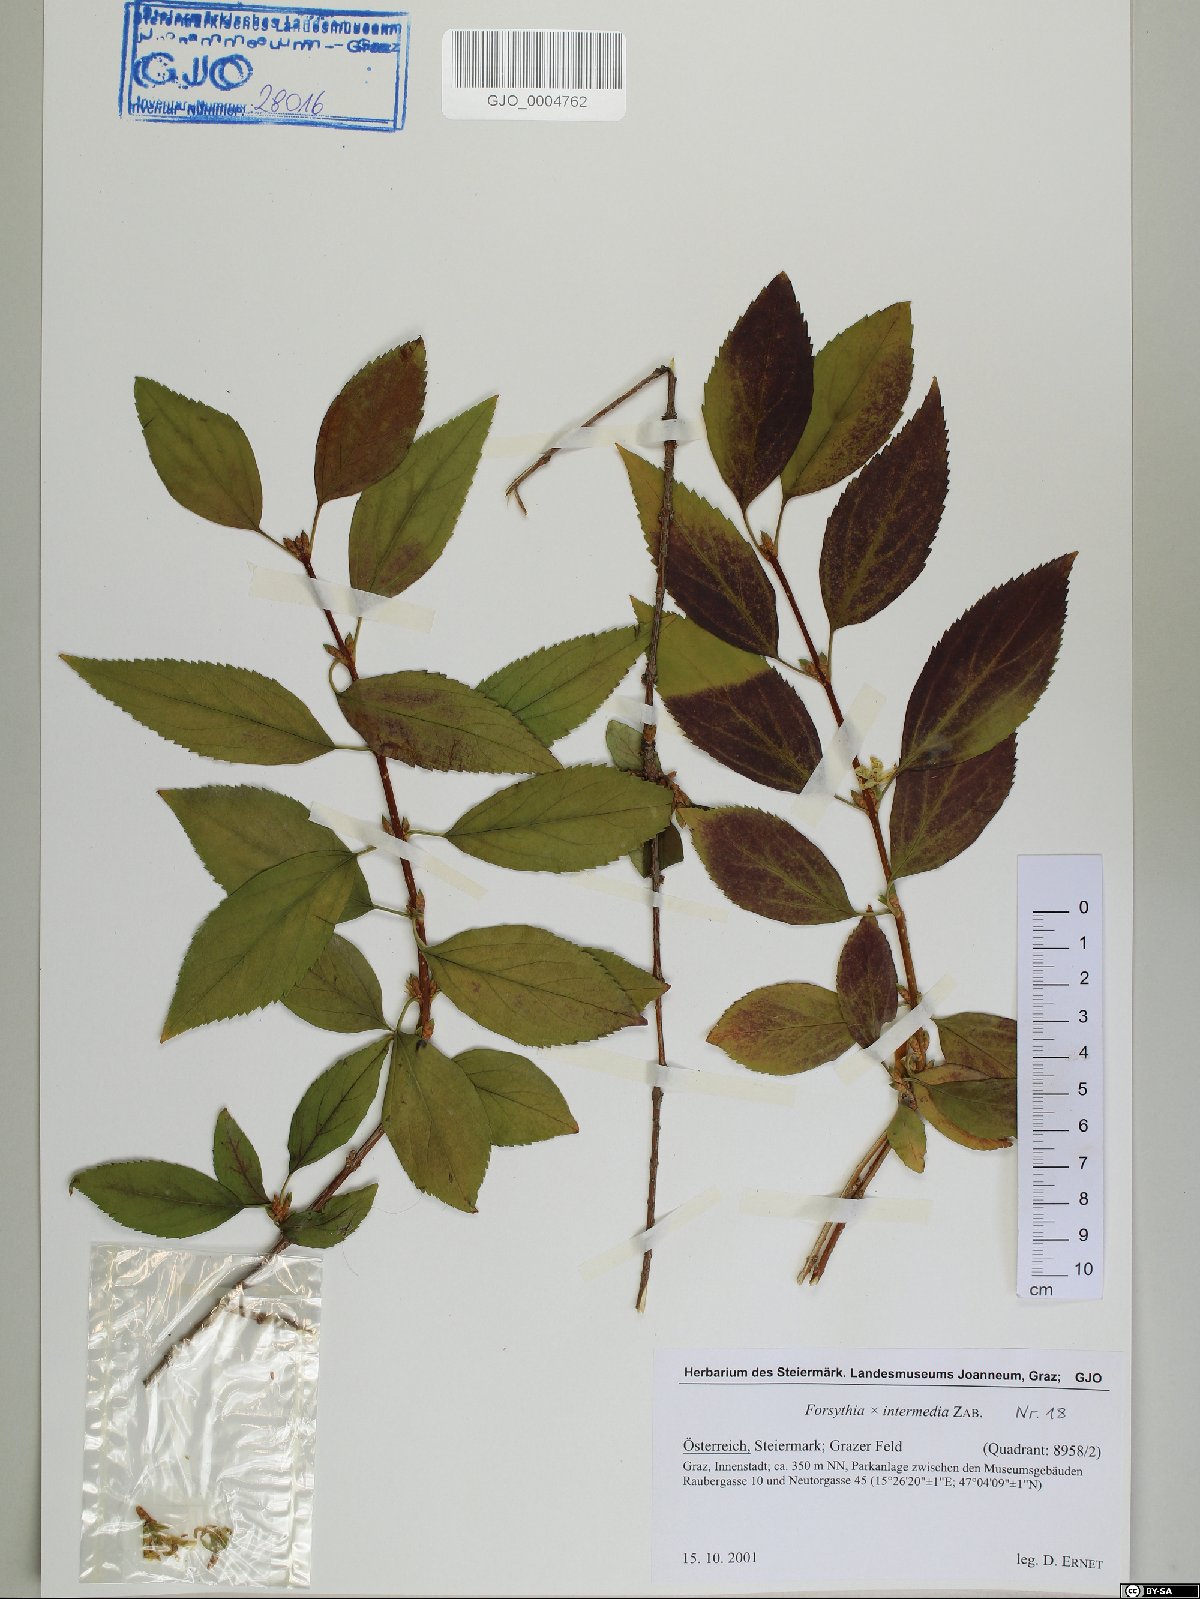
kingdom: Plantae
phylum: Tracheophyta
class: Magnoliopsida
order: Lamiales
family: Oleaceae
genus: Forsythia
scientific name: Forsythia intermedia
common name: Forsythia
